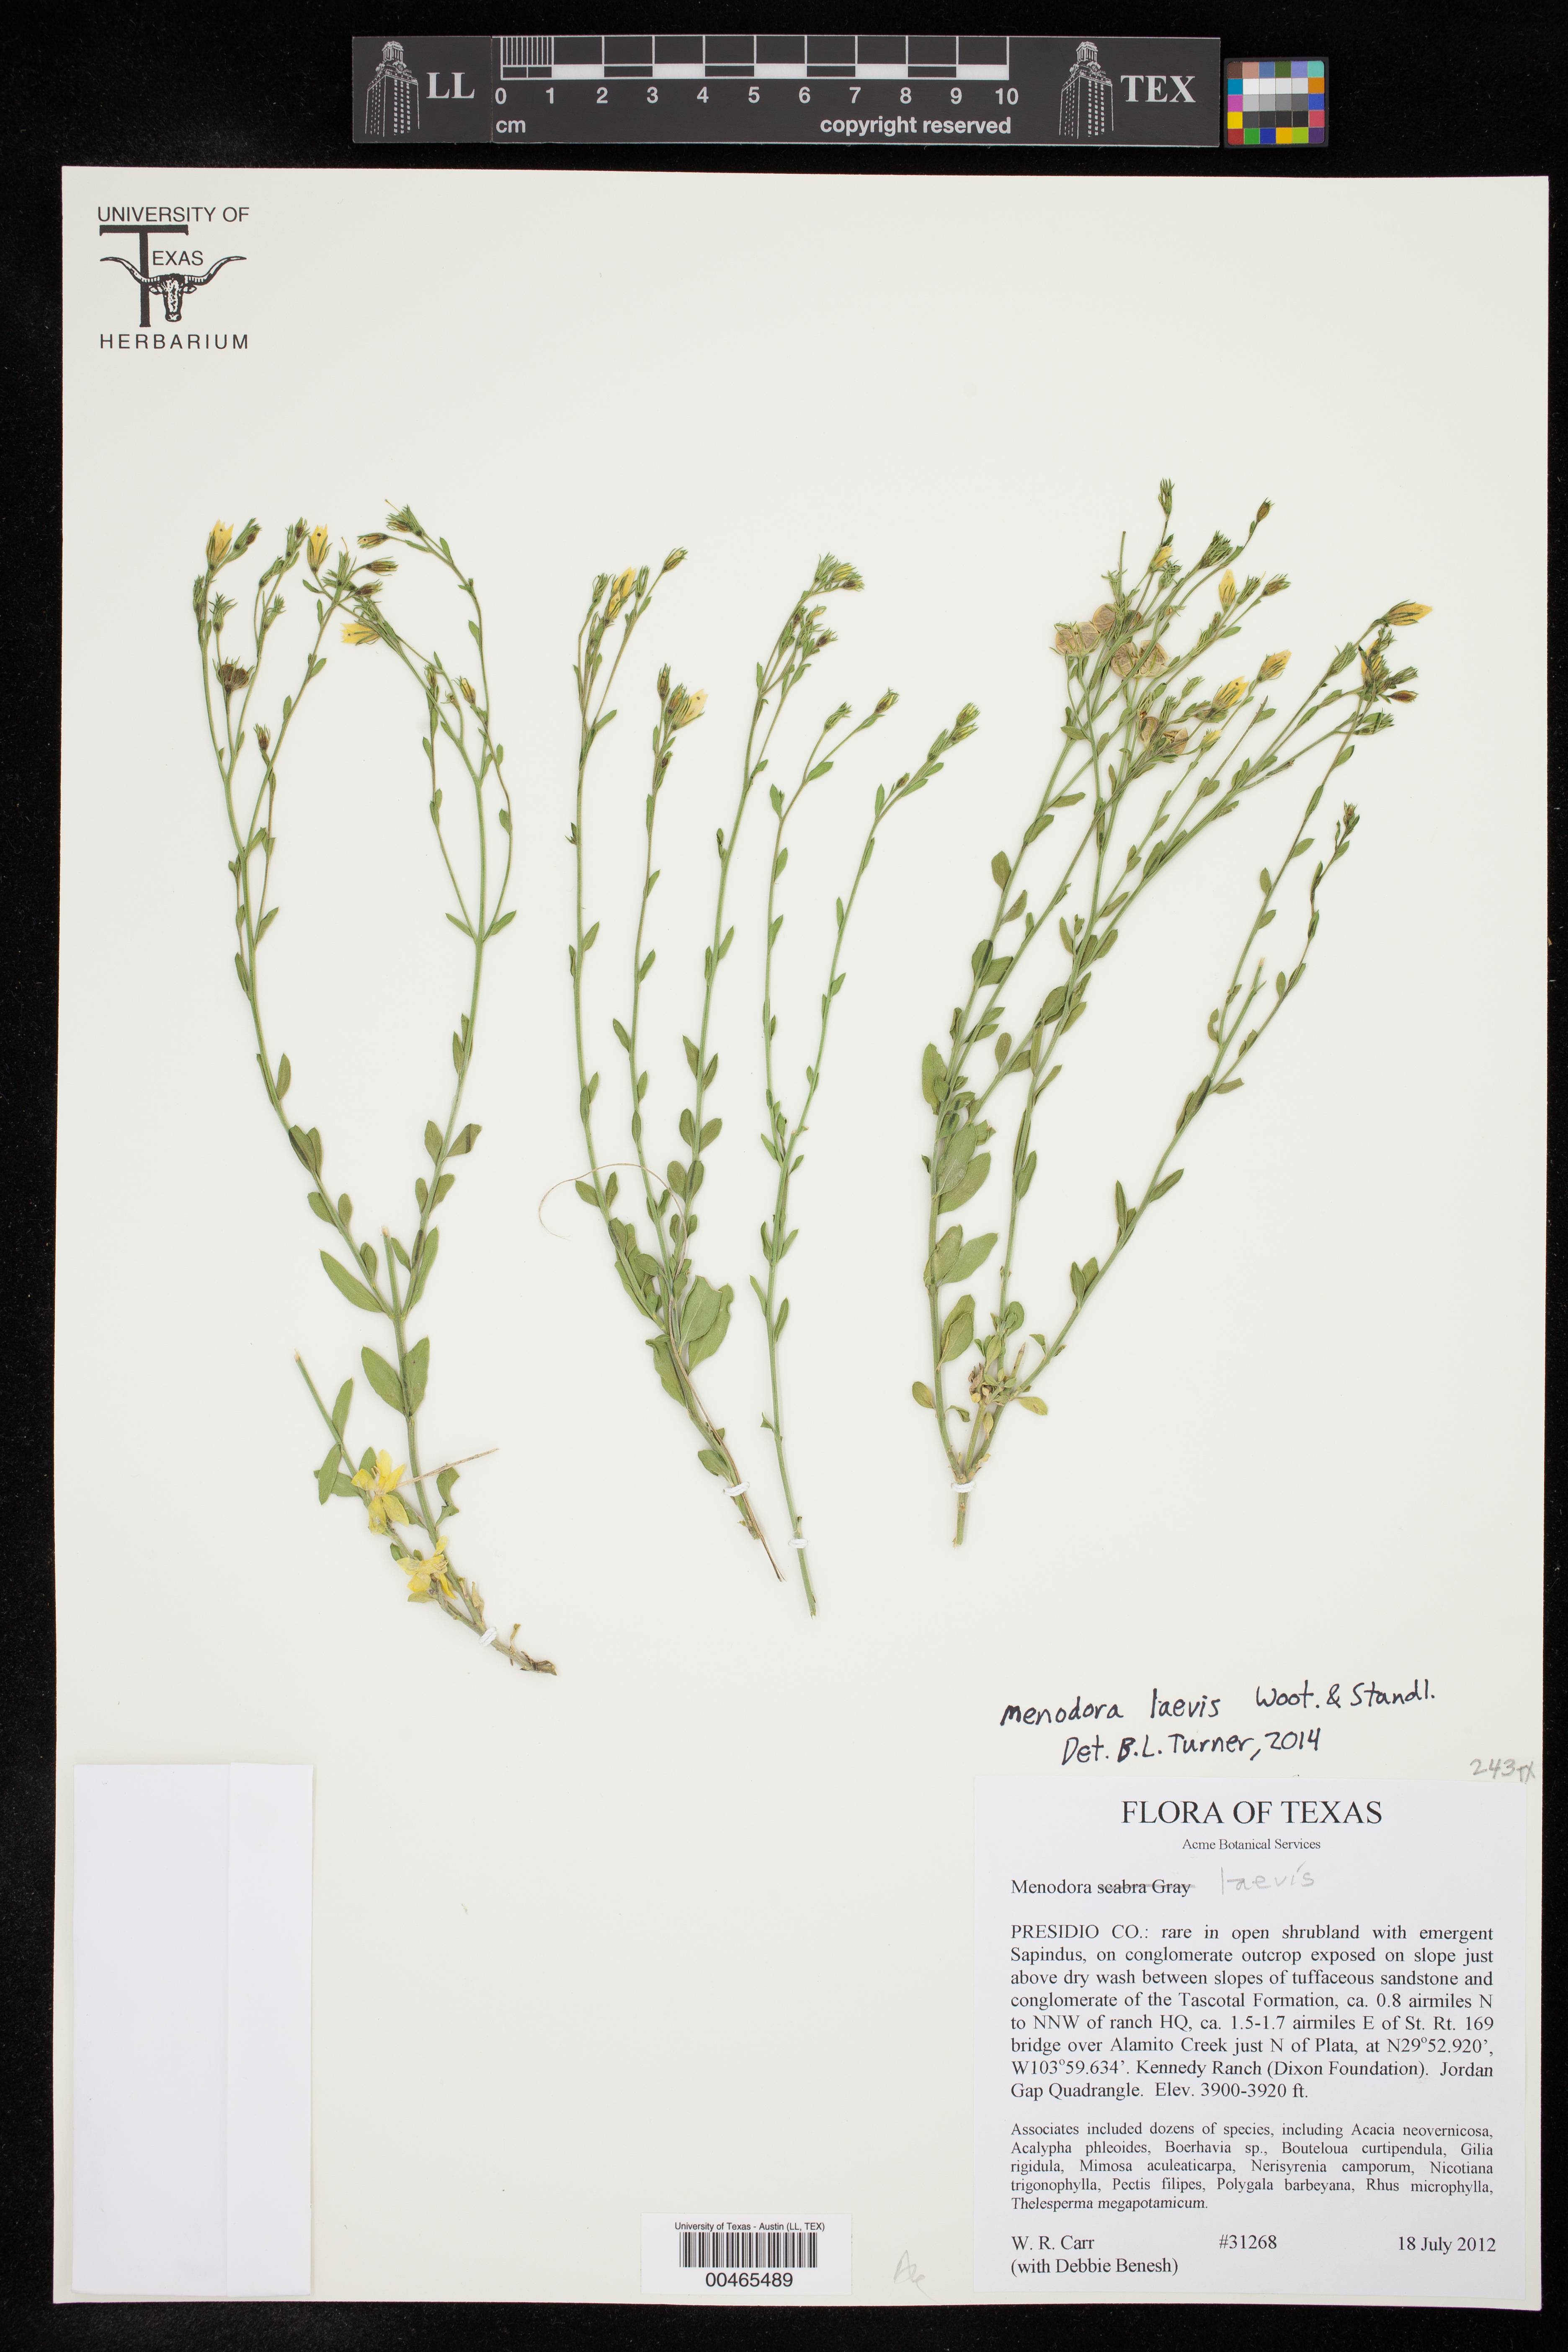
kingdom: Plantae
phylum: Tracheophyta
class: Magnoliopsida
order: Lamiales
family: Oleaceae
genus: Menodora
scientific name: Menodora scabra
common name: Rough menodora
